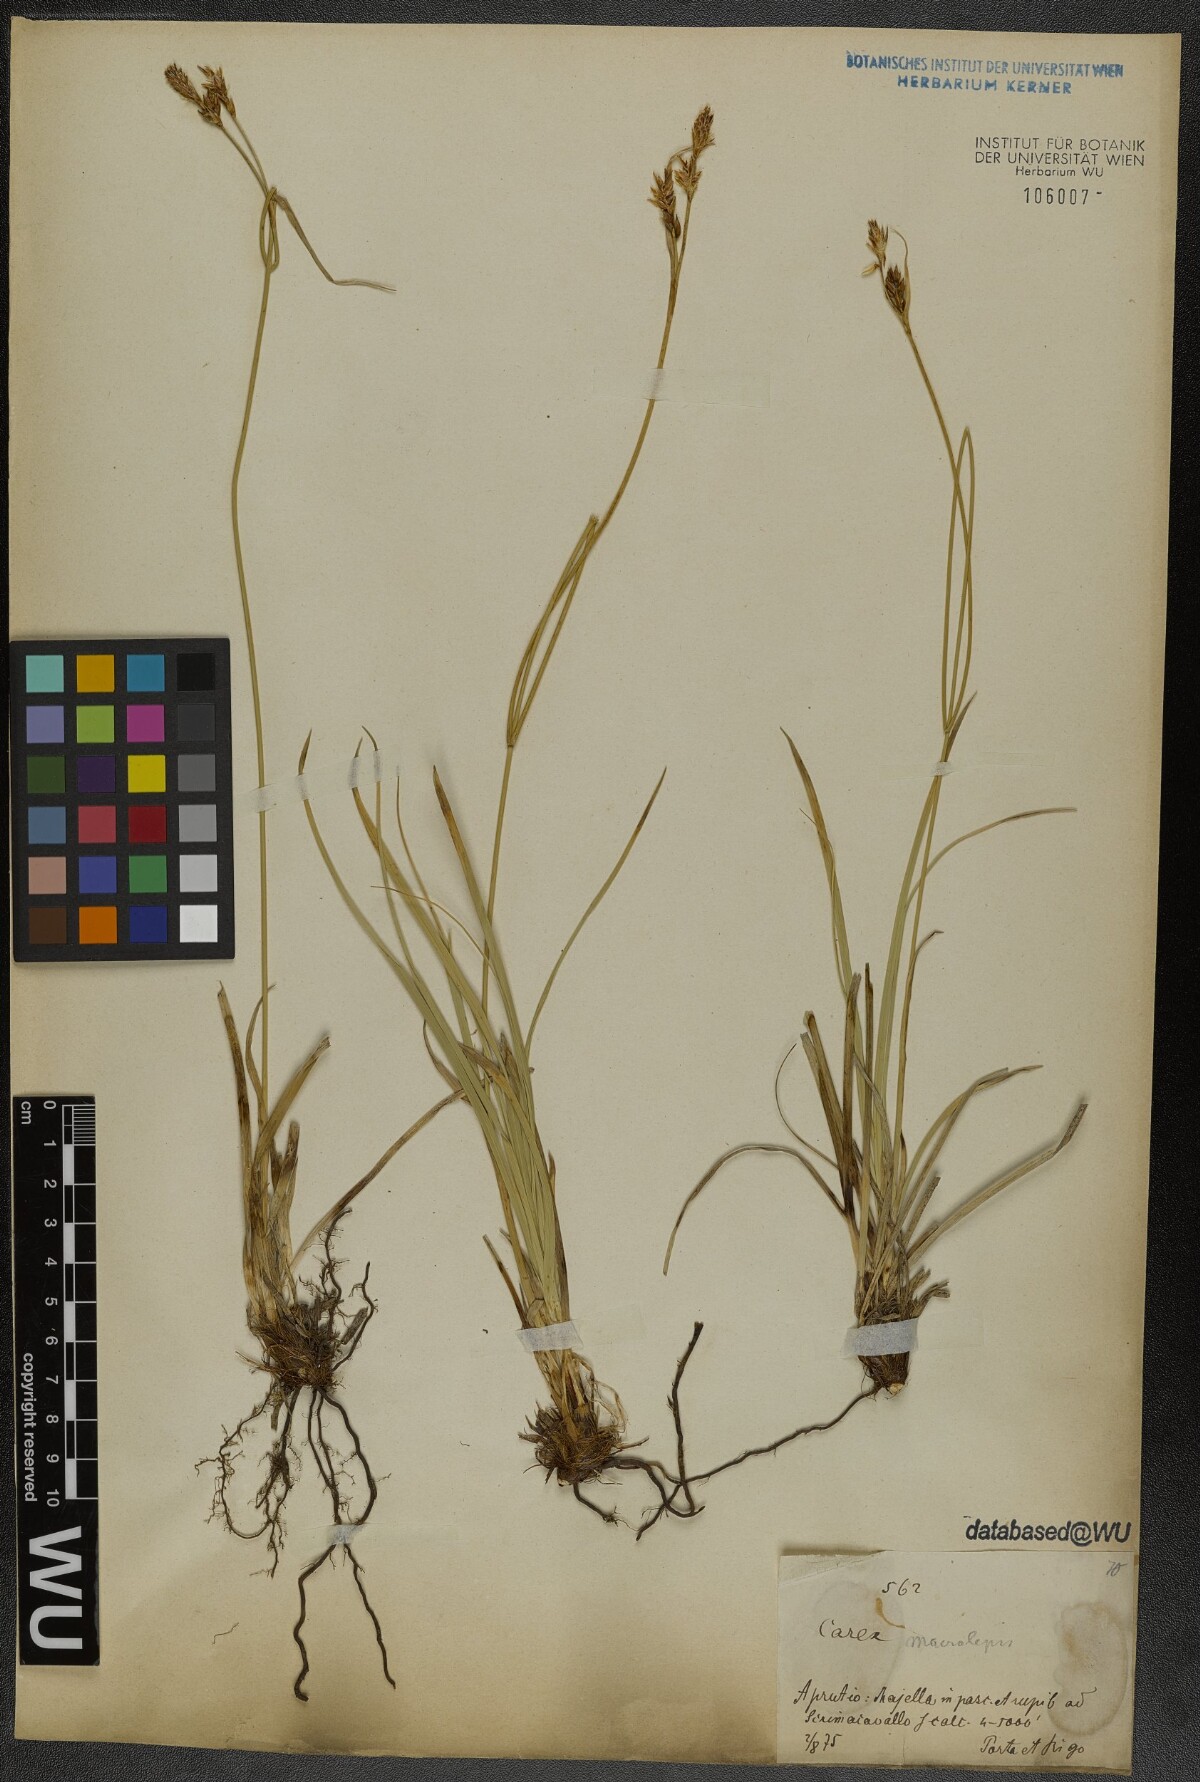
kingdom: Plantae
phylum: Tracheophyta
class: Liliopsida
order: Poales
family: Cyperaceae
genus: Carex
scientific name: Carex macrolepis
